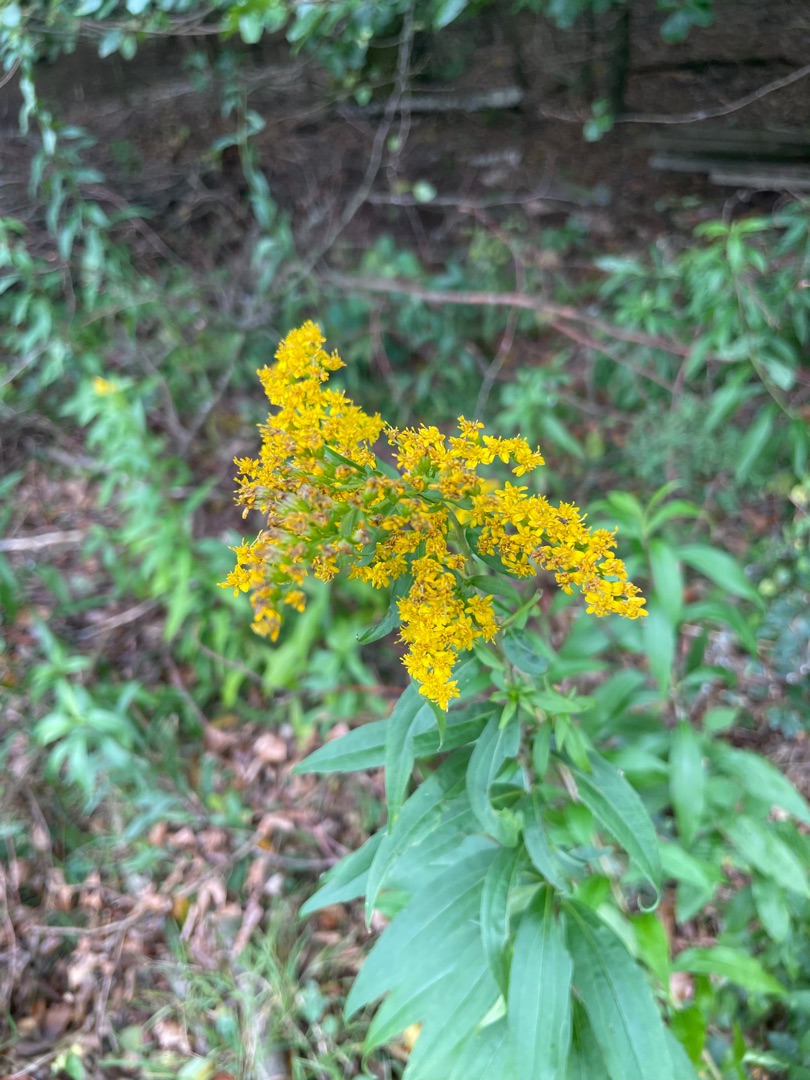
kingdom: Plantae
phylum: Tracheophyta
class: Magnoliopsida
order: Asterales
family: Asteraceae
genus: Solidago
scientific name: Solidago gigantea
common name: Sildig gyldenris
